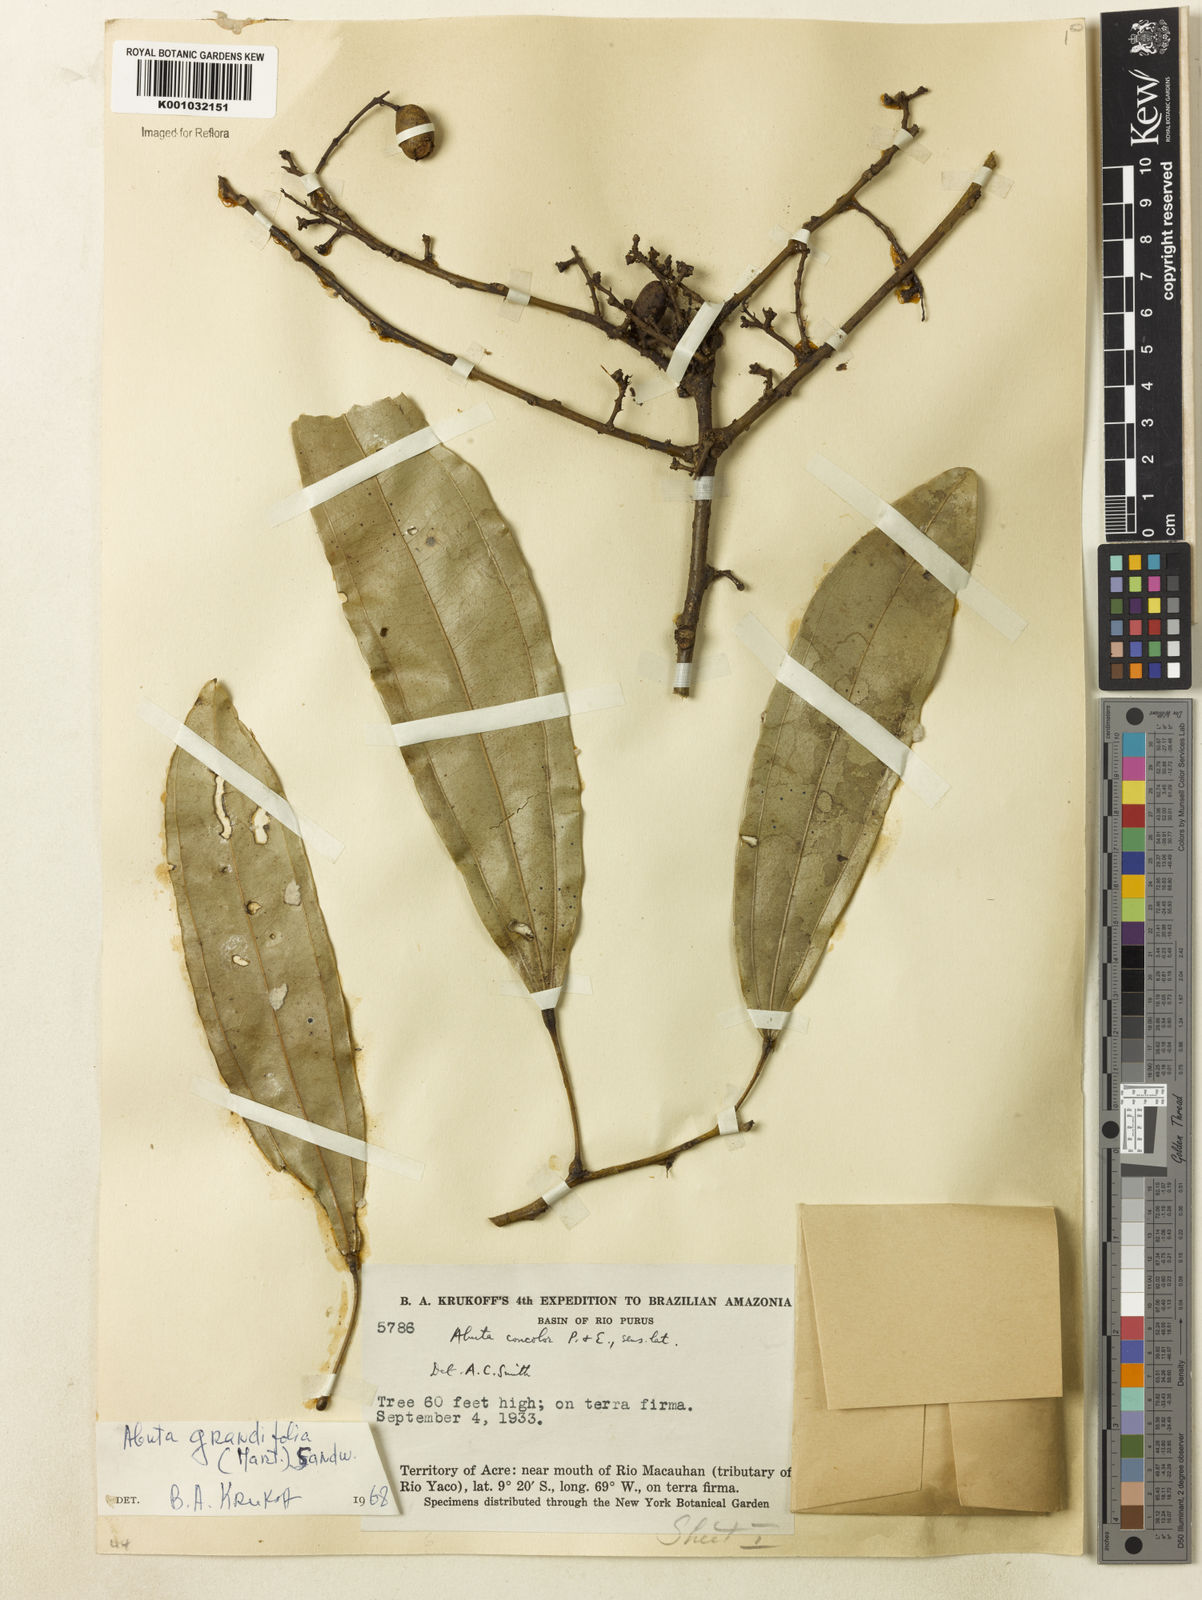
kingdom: Plantae
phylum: Tracheophyta
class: Magnoliopsida
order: Ranunculales
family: Menispermaceae
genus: Abuta
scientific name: Abuta grandifolia
